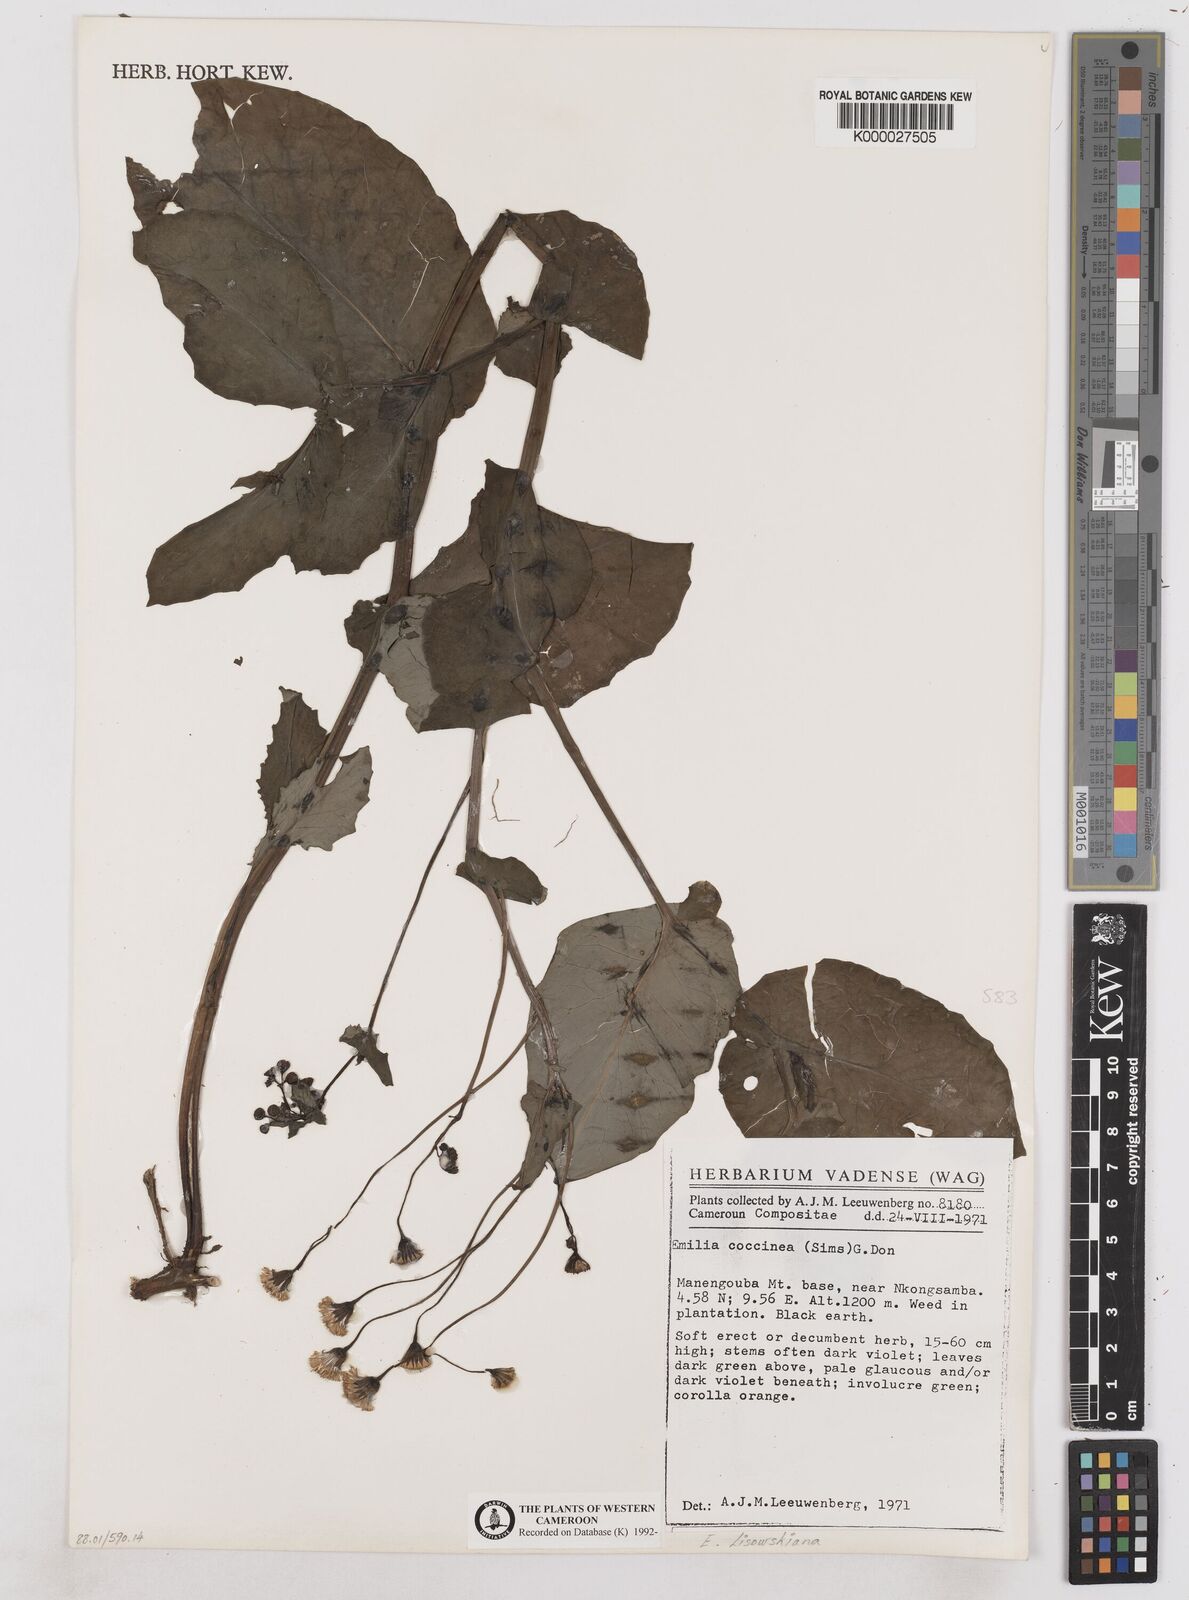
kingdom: Plantae
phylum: Tracheophyta
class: Magnoliopsida
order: Asterales
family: Asteraceae
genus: Emilia
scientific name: Emilia lisowskiana
